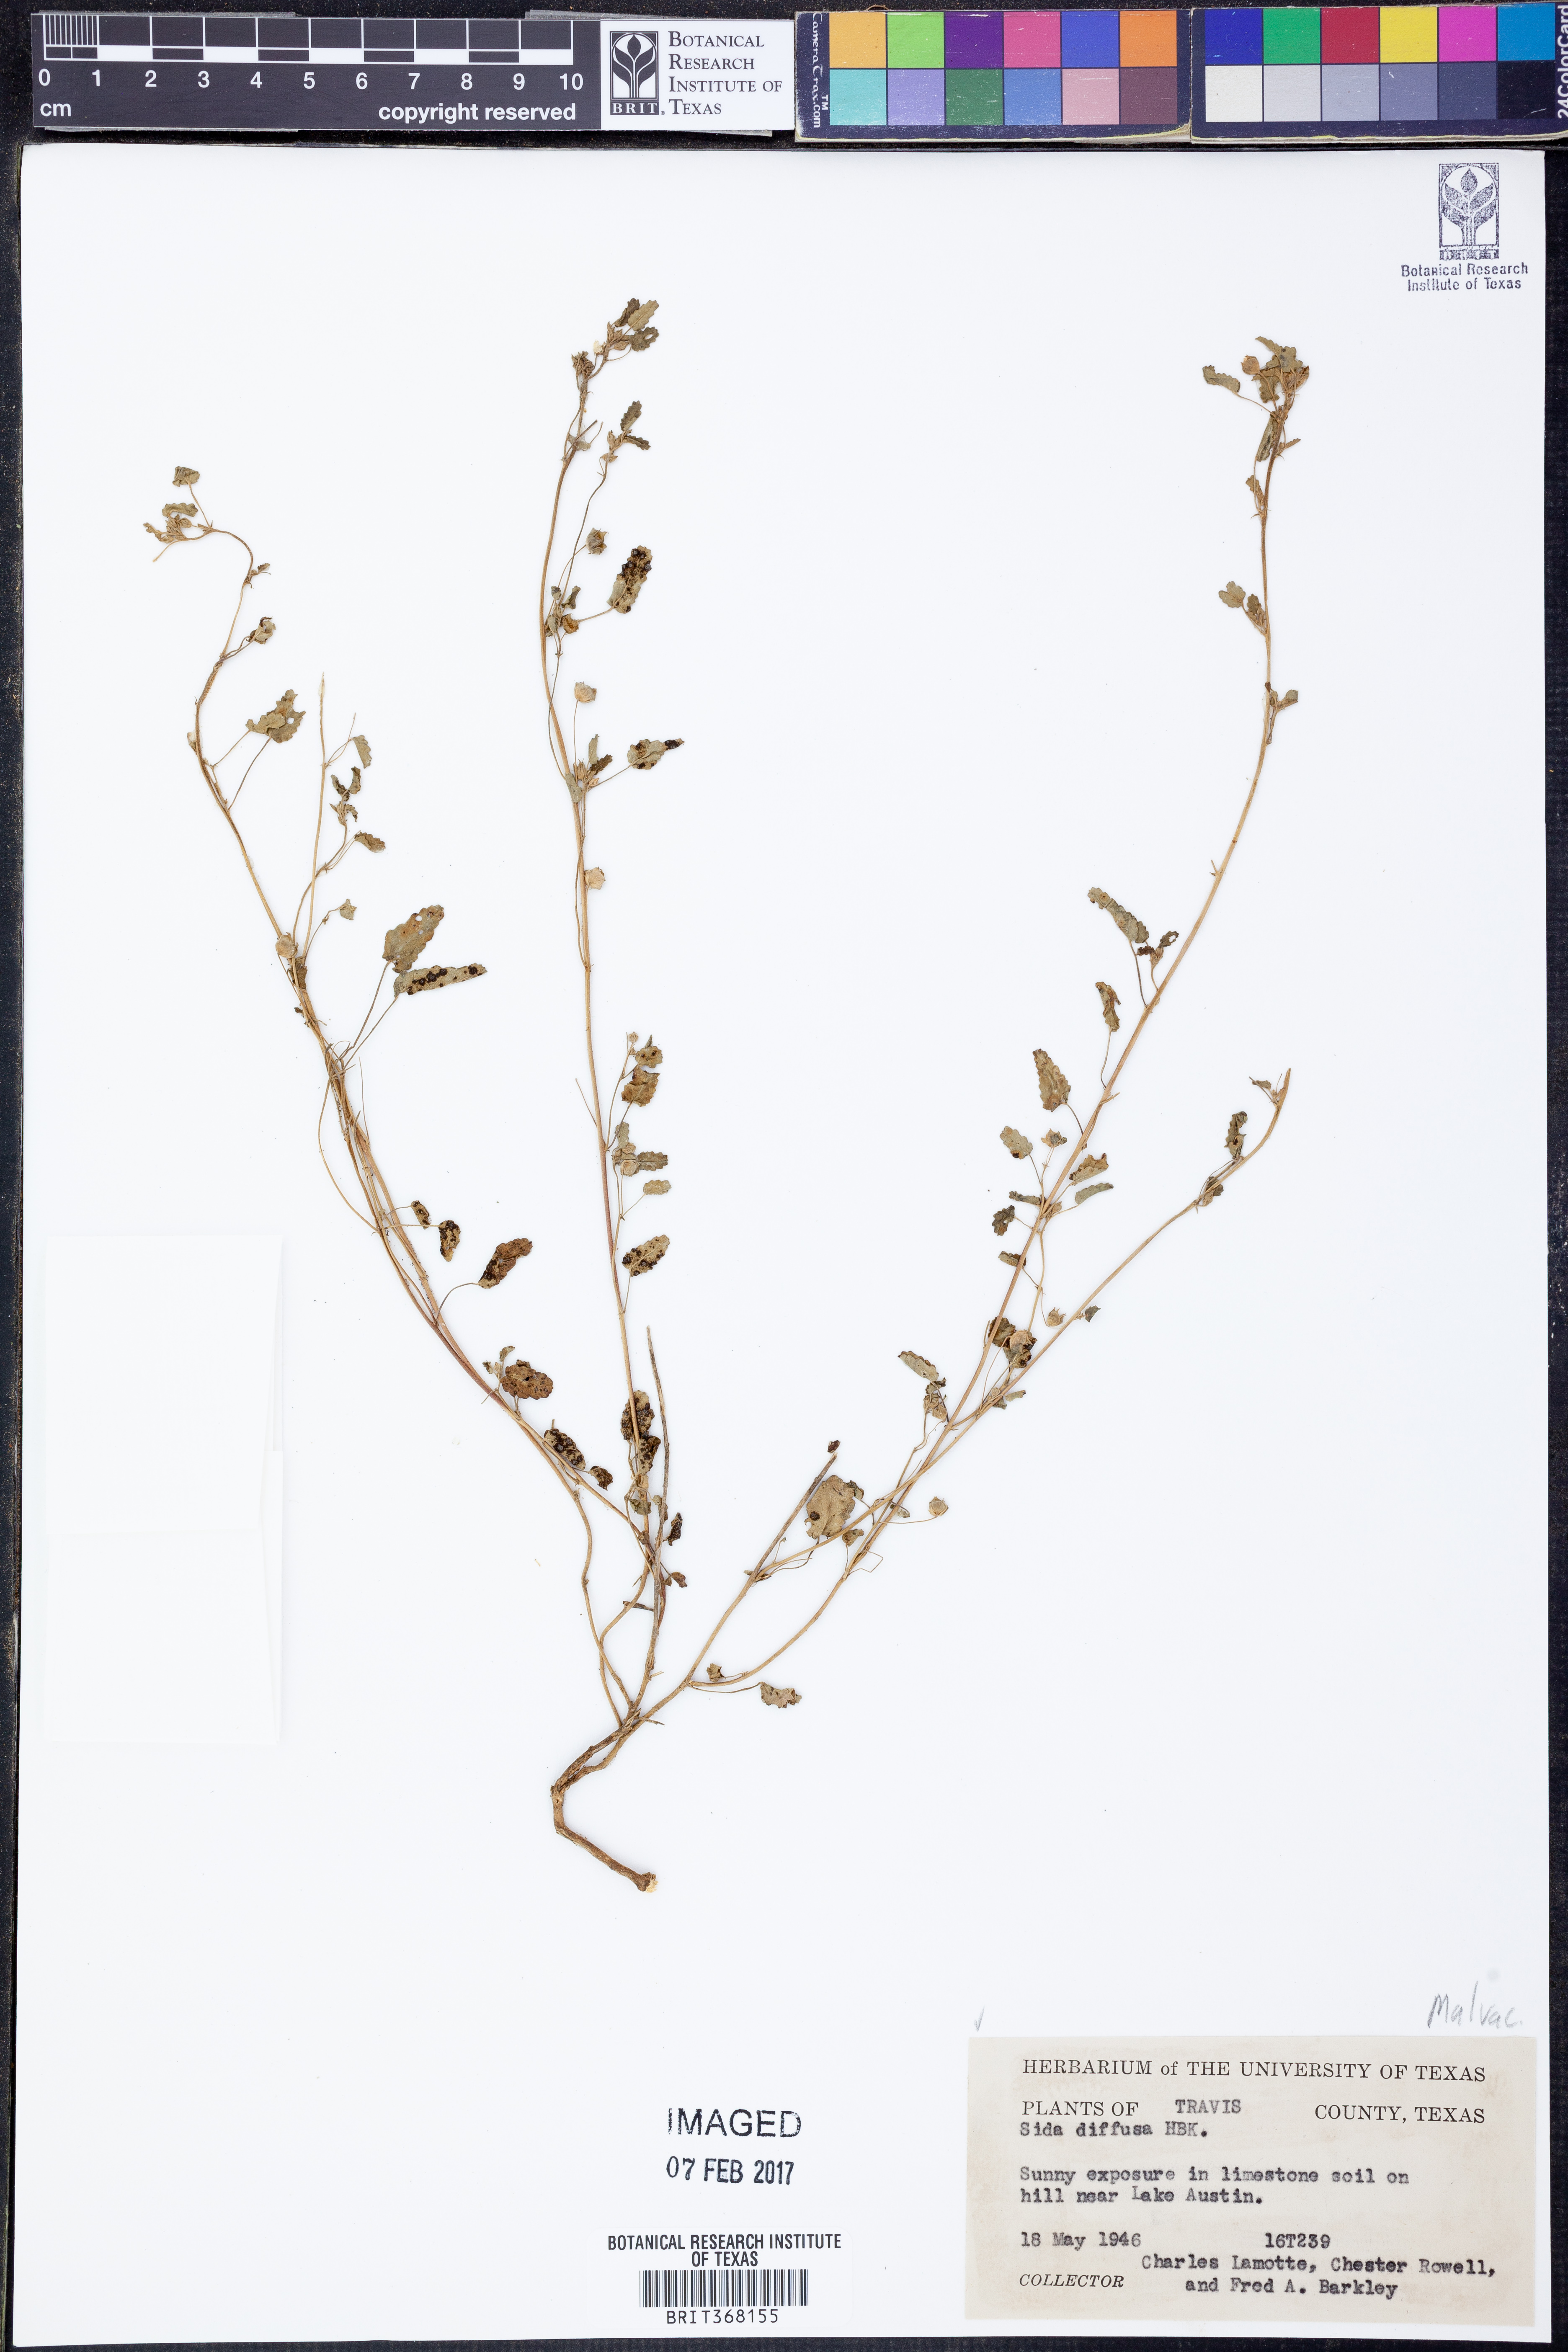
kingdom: Plantae
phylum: Tracheophyta
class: Magnoliopsida
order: Malvales
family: Malvaceae
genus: Sida
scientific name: Sida abutilifolia
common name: Spreading fanpetals
